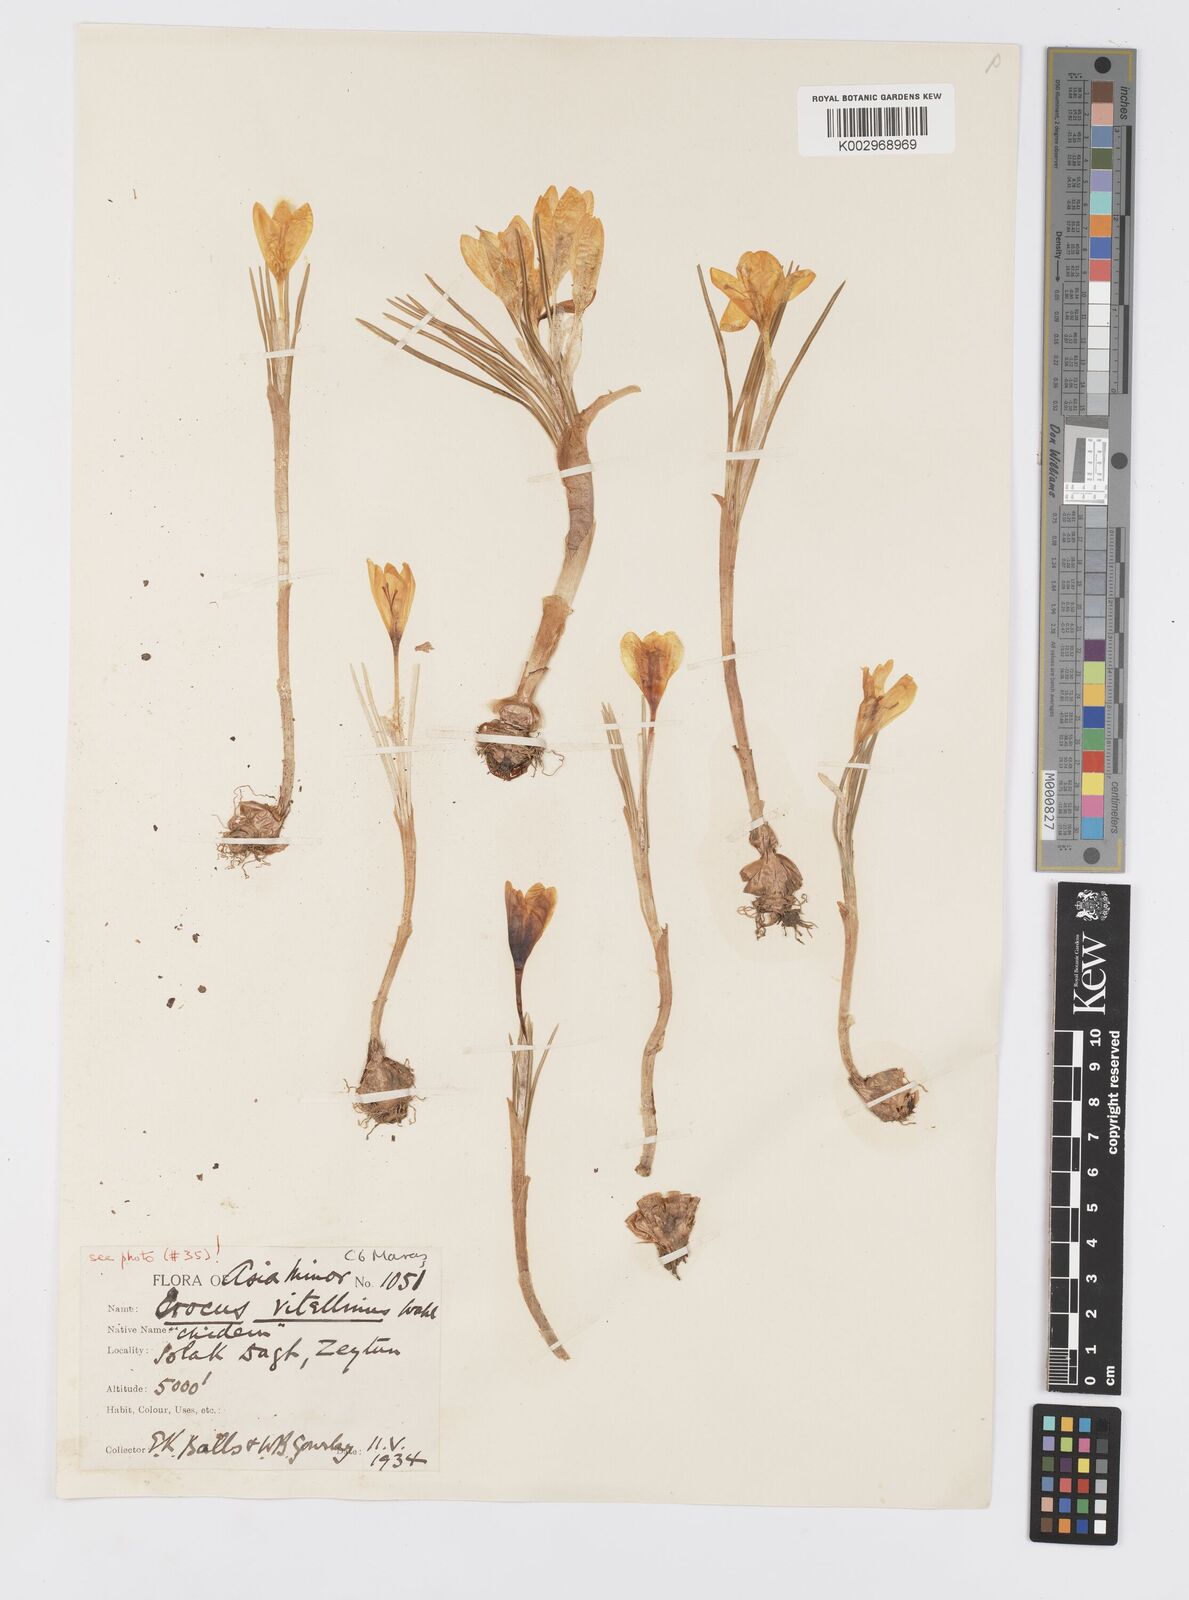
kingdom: Plantae
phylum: Tracheophyta
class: Liliopsida
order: Asparagales
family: Iridaceae
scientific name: Iridaceae
